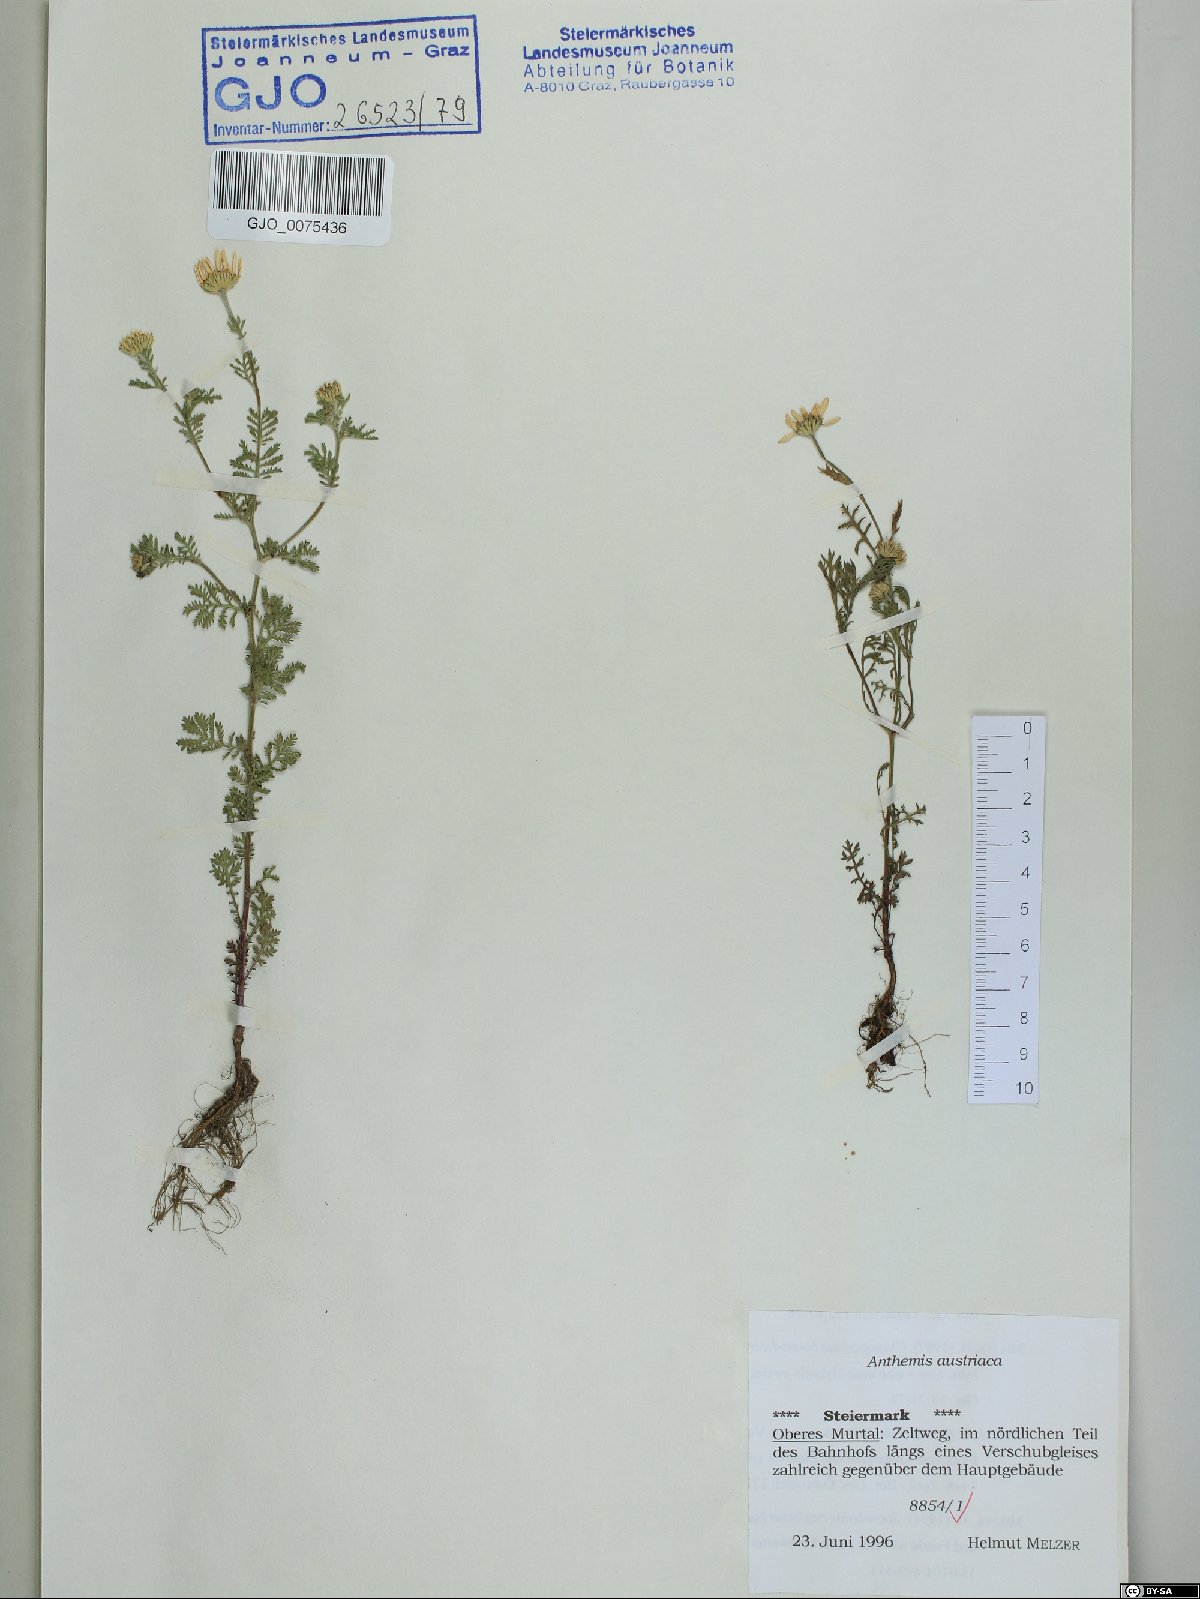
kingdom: Plantae
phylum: Tracheophyta
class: Magnoliopsida
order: Asterales
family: Asteraceae
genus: Cota
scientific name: Cota austriaca
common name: Austrian chamomile
